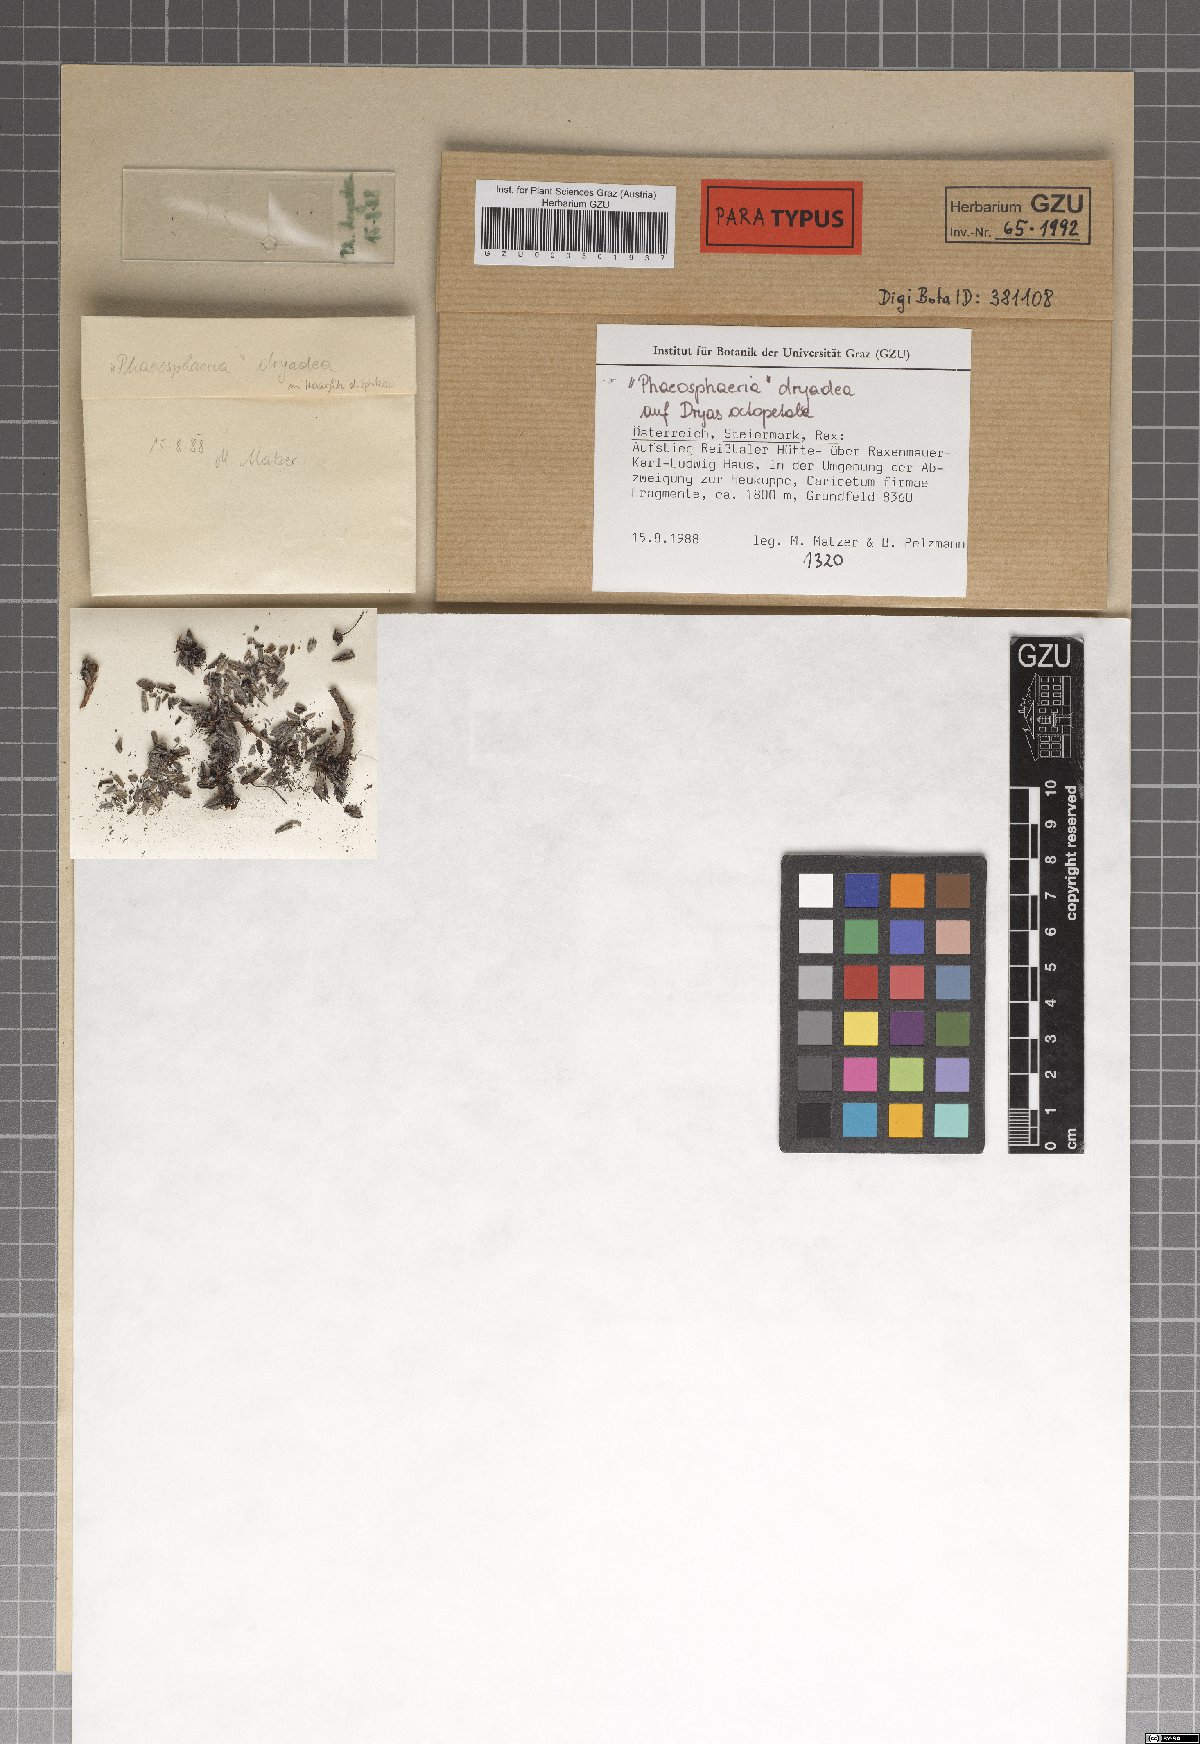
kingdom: Fungi
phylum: Ascomycota
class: Dothideomycetes
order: Pleosporales
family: Phaeosphaeriaceae
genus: Phaeosphaeria
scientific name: Phaeosphaeria dryadis
